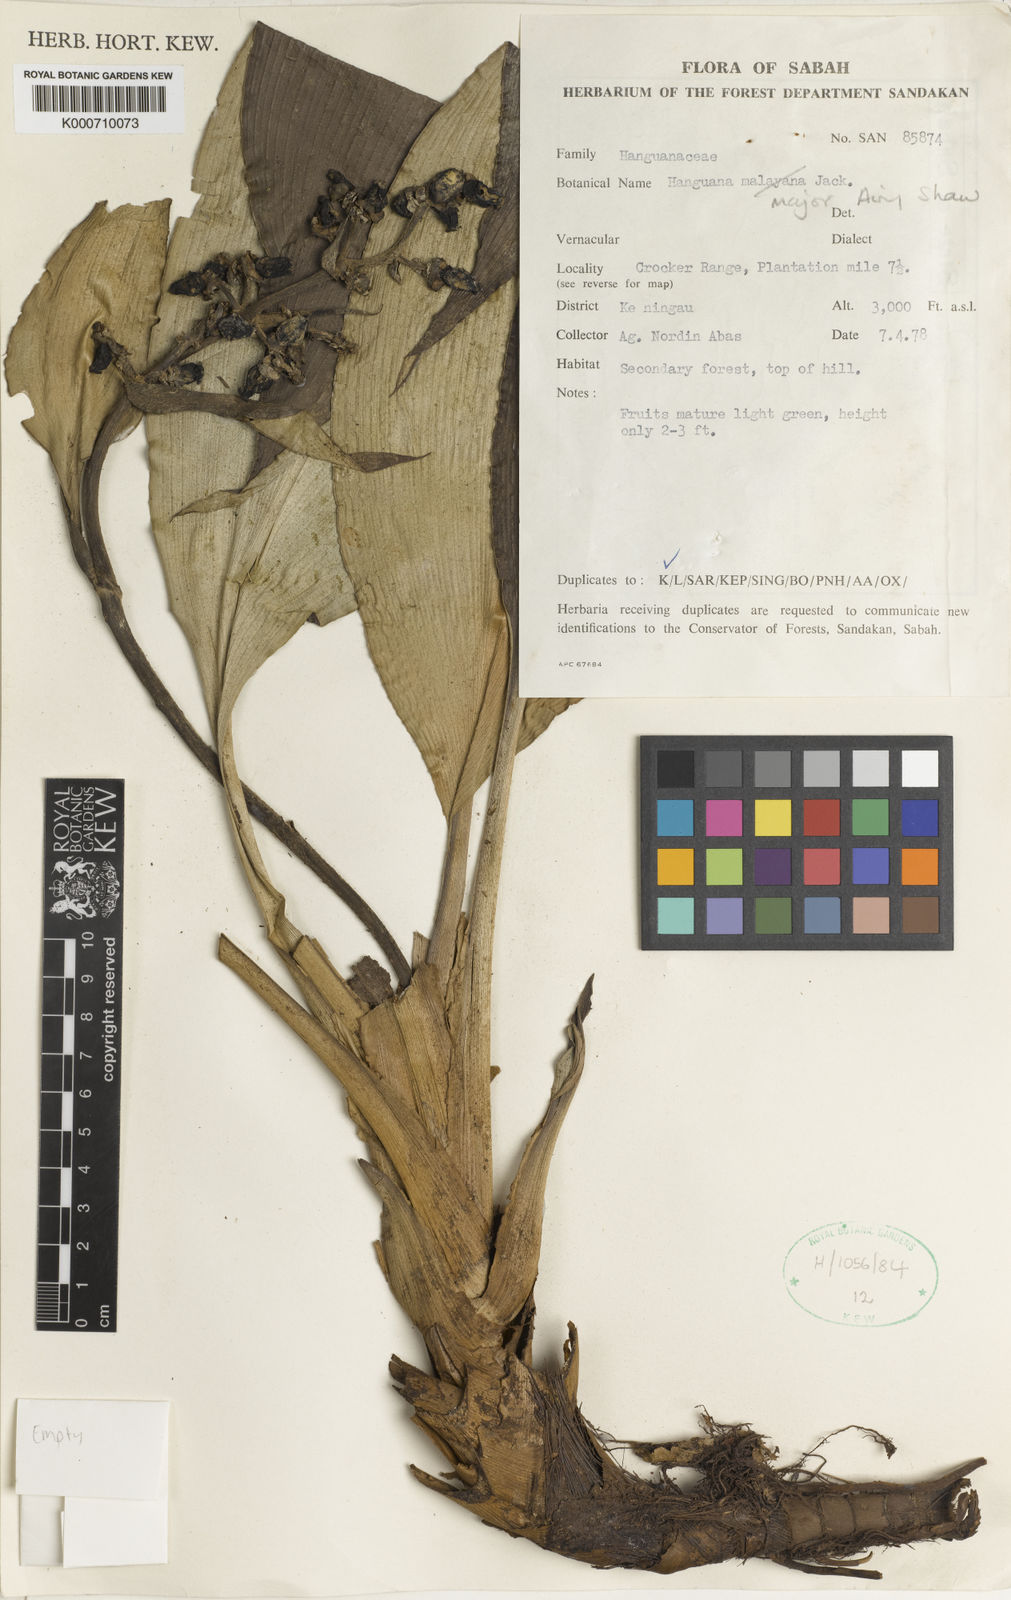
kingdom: Plantae
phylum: Tracheophyta
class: Liliopsida
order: Commelinales
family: Hanguanaceae
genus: Hanguana
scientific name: Hanguana major
